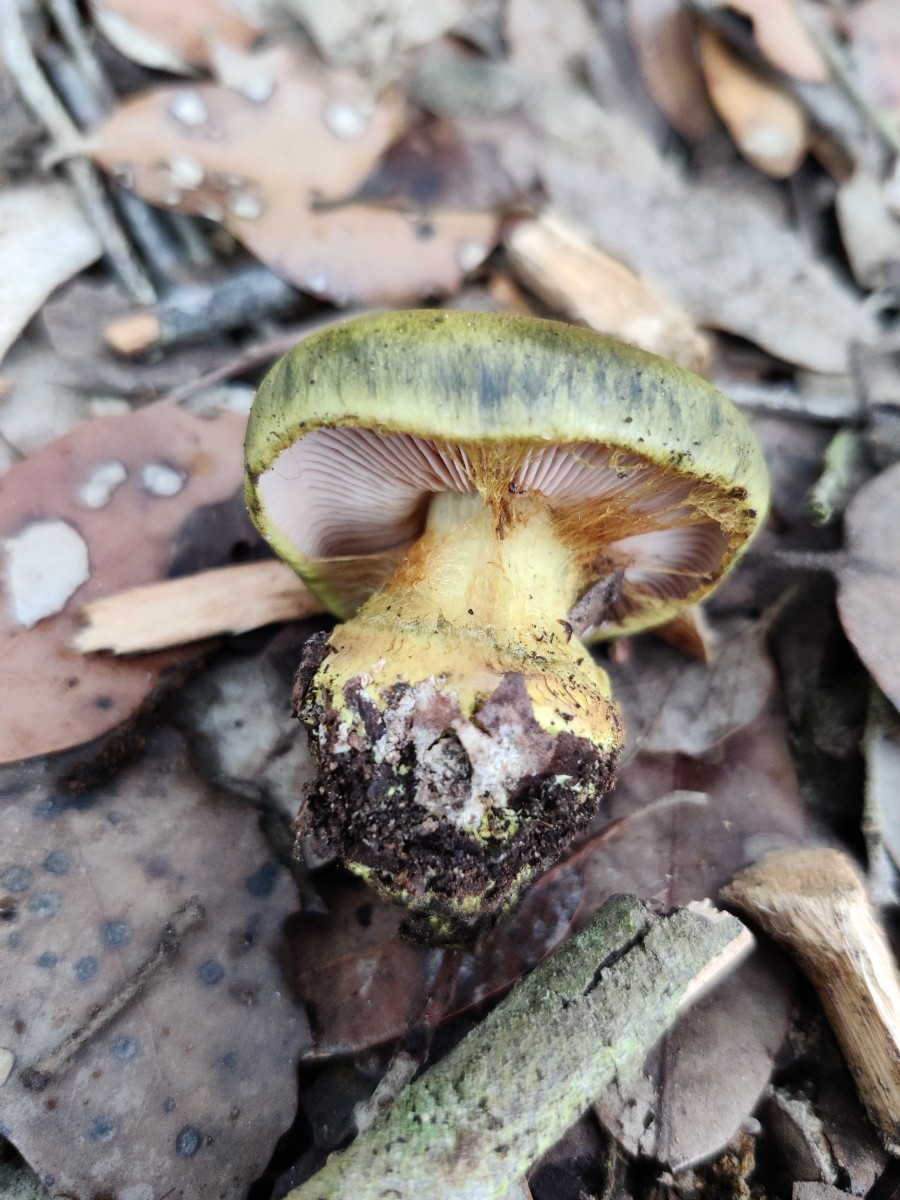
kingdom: Fungi
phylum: Basidiomycota
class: Agaricomycetes
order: Agaricales
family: Cortinariaceae
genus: Calonarius
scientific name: Calonarius ionochlorus
